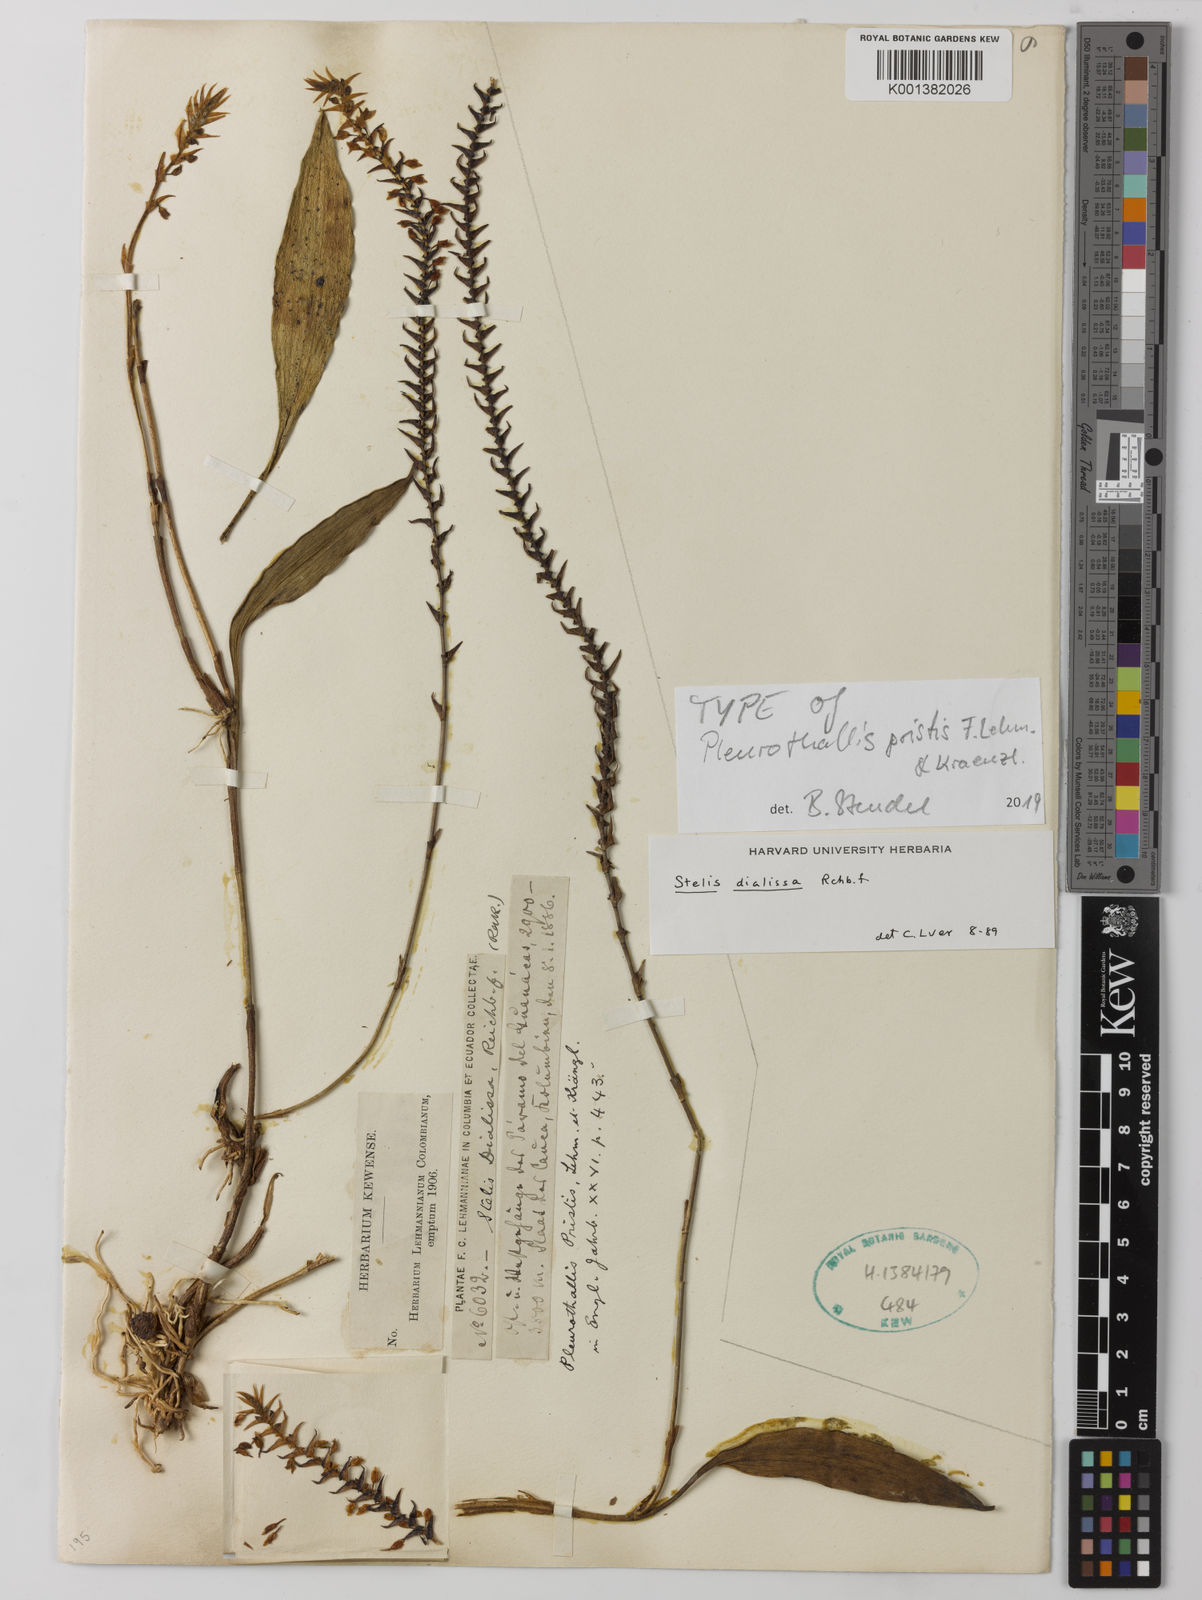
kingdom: Plantae
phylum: Tracheophyta
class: Liliopsida
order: Asparagales
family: Orchidaceae
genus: Stelis
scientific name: Stelis dialissa
